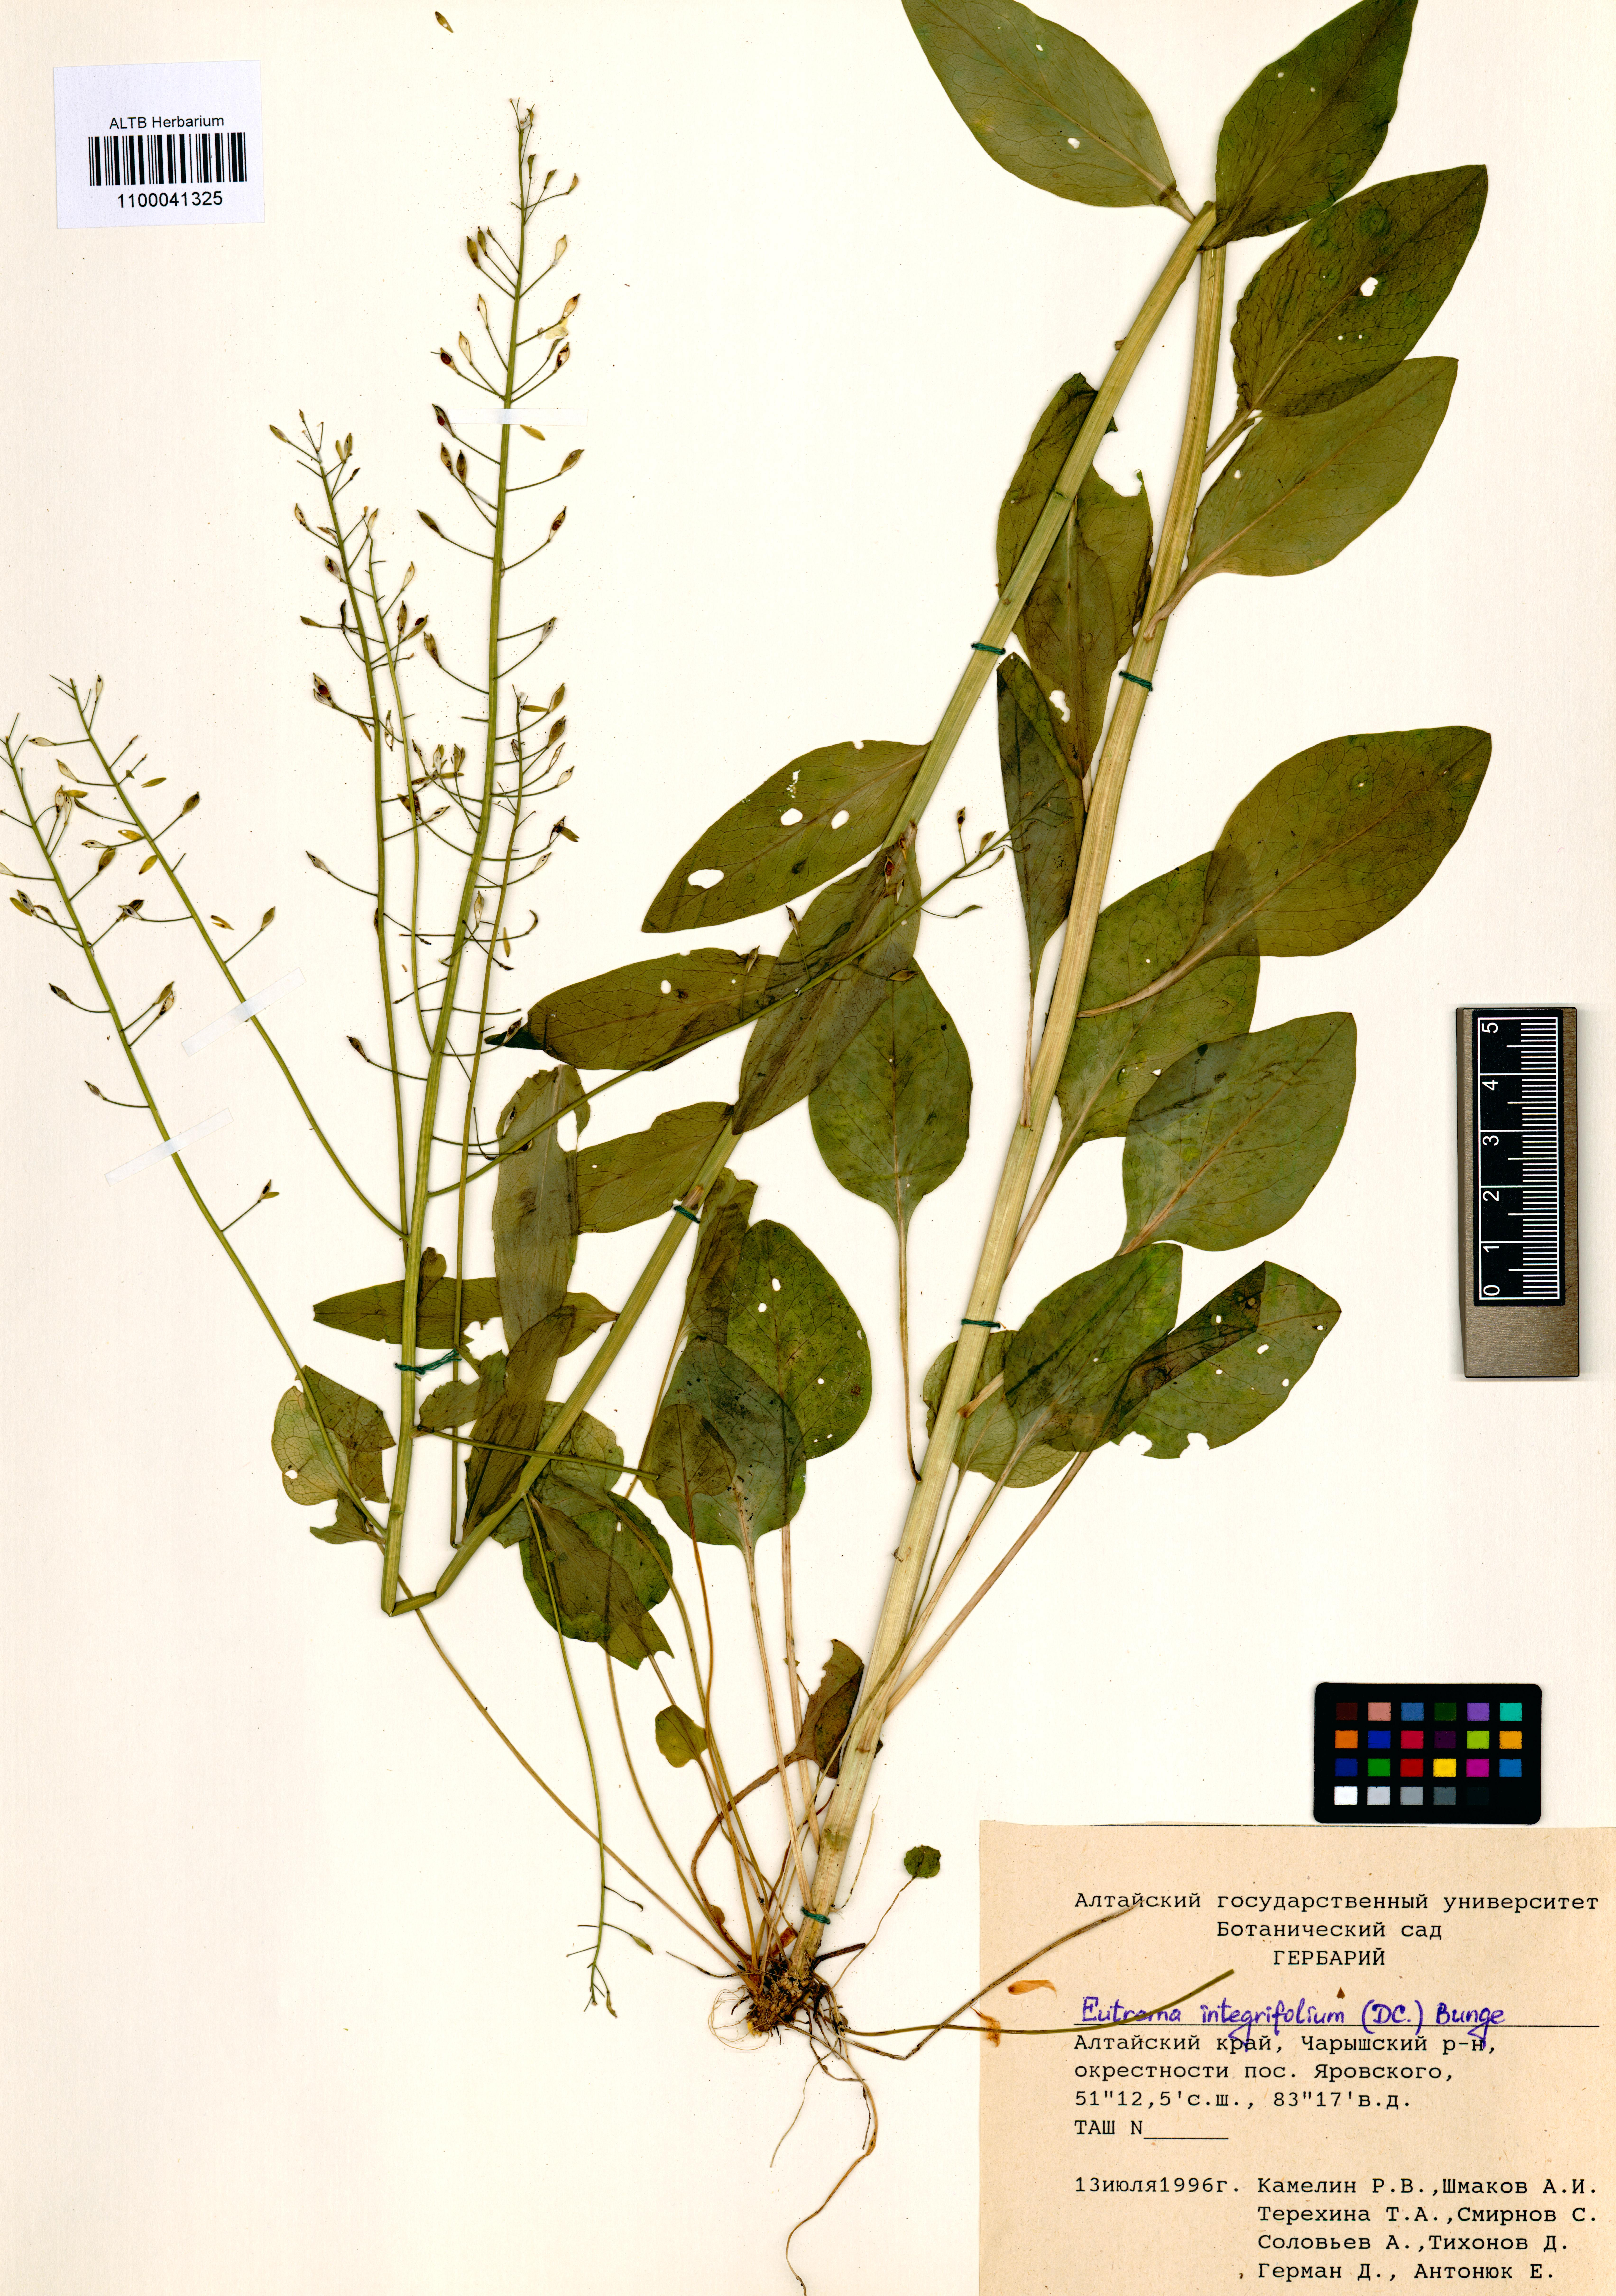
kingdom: Plantae
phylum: Tracheophyta
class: Magnoliopsida
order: Brassicales
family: Brassicaceae
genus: Eutrema
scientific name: Eutrema integrifolium
